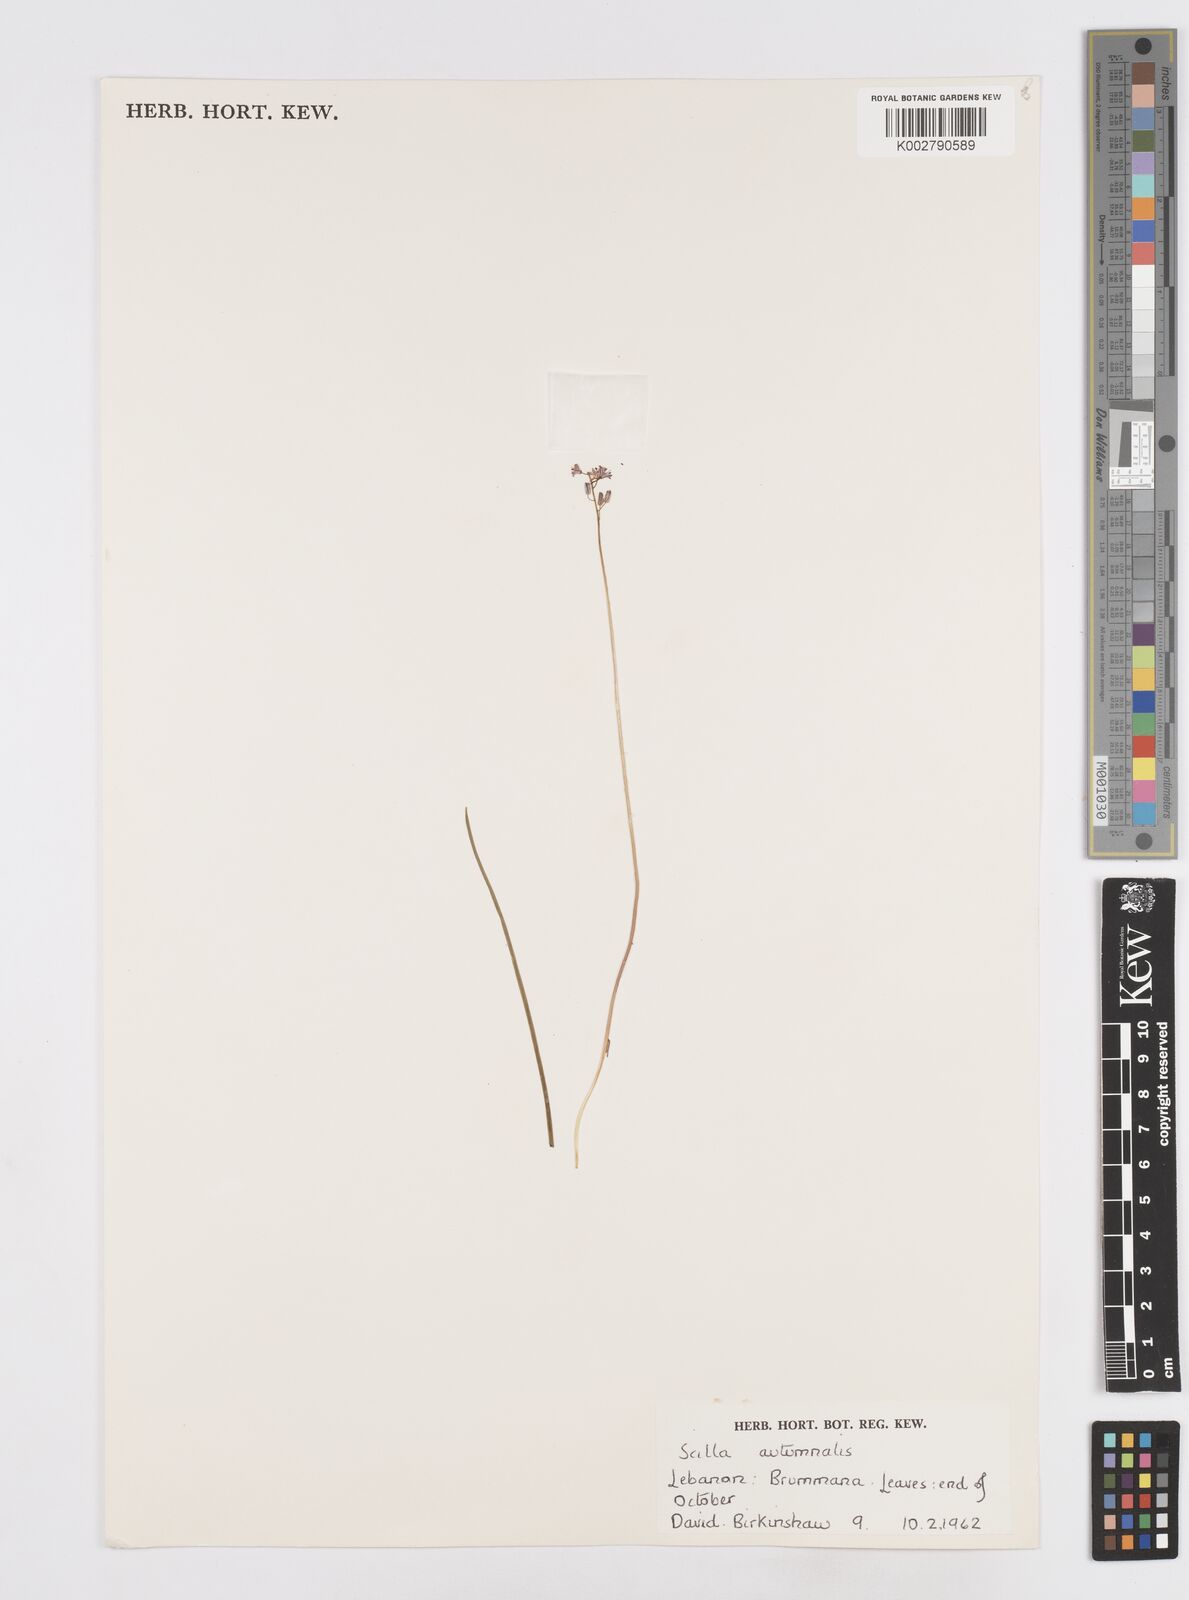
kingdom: Plantae
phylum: Tracheophyta
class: Liliopsida
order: Asparagales
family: Asparagaceae
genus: Prospero
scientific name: Prospero autumnale
